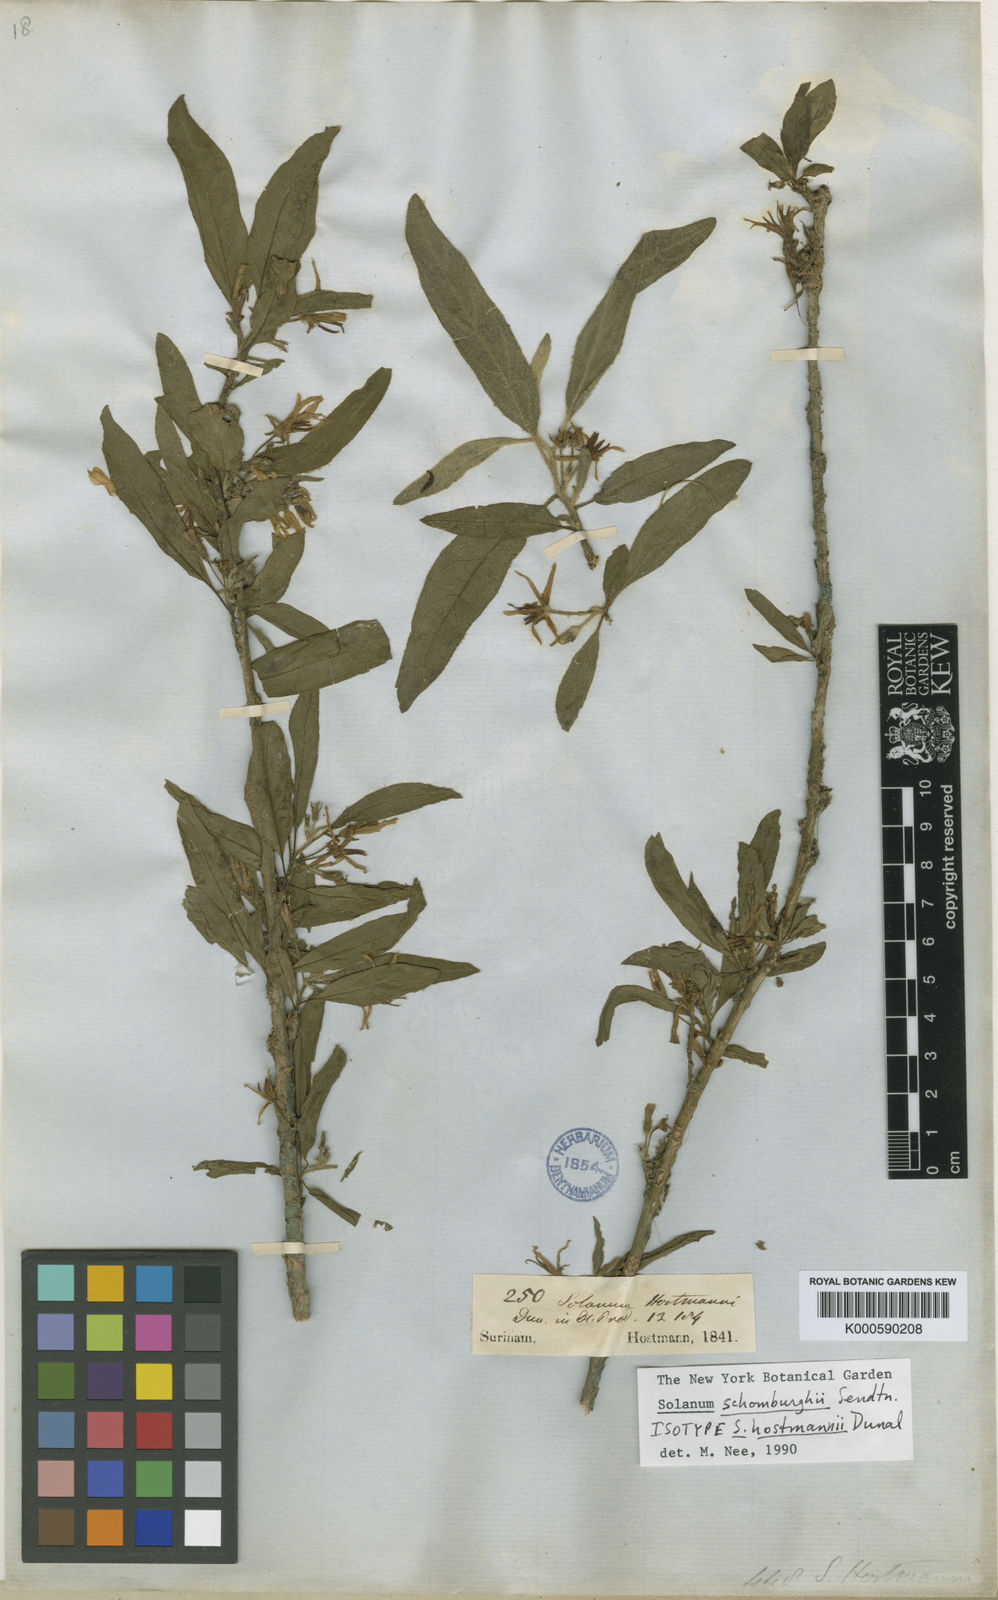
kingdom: Plantae
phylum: Tracheophyta
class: Magnoliopsida
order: Solanales
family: Solanaceae
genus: Solanum
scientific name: Solanum schomburgkii
